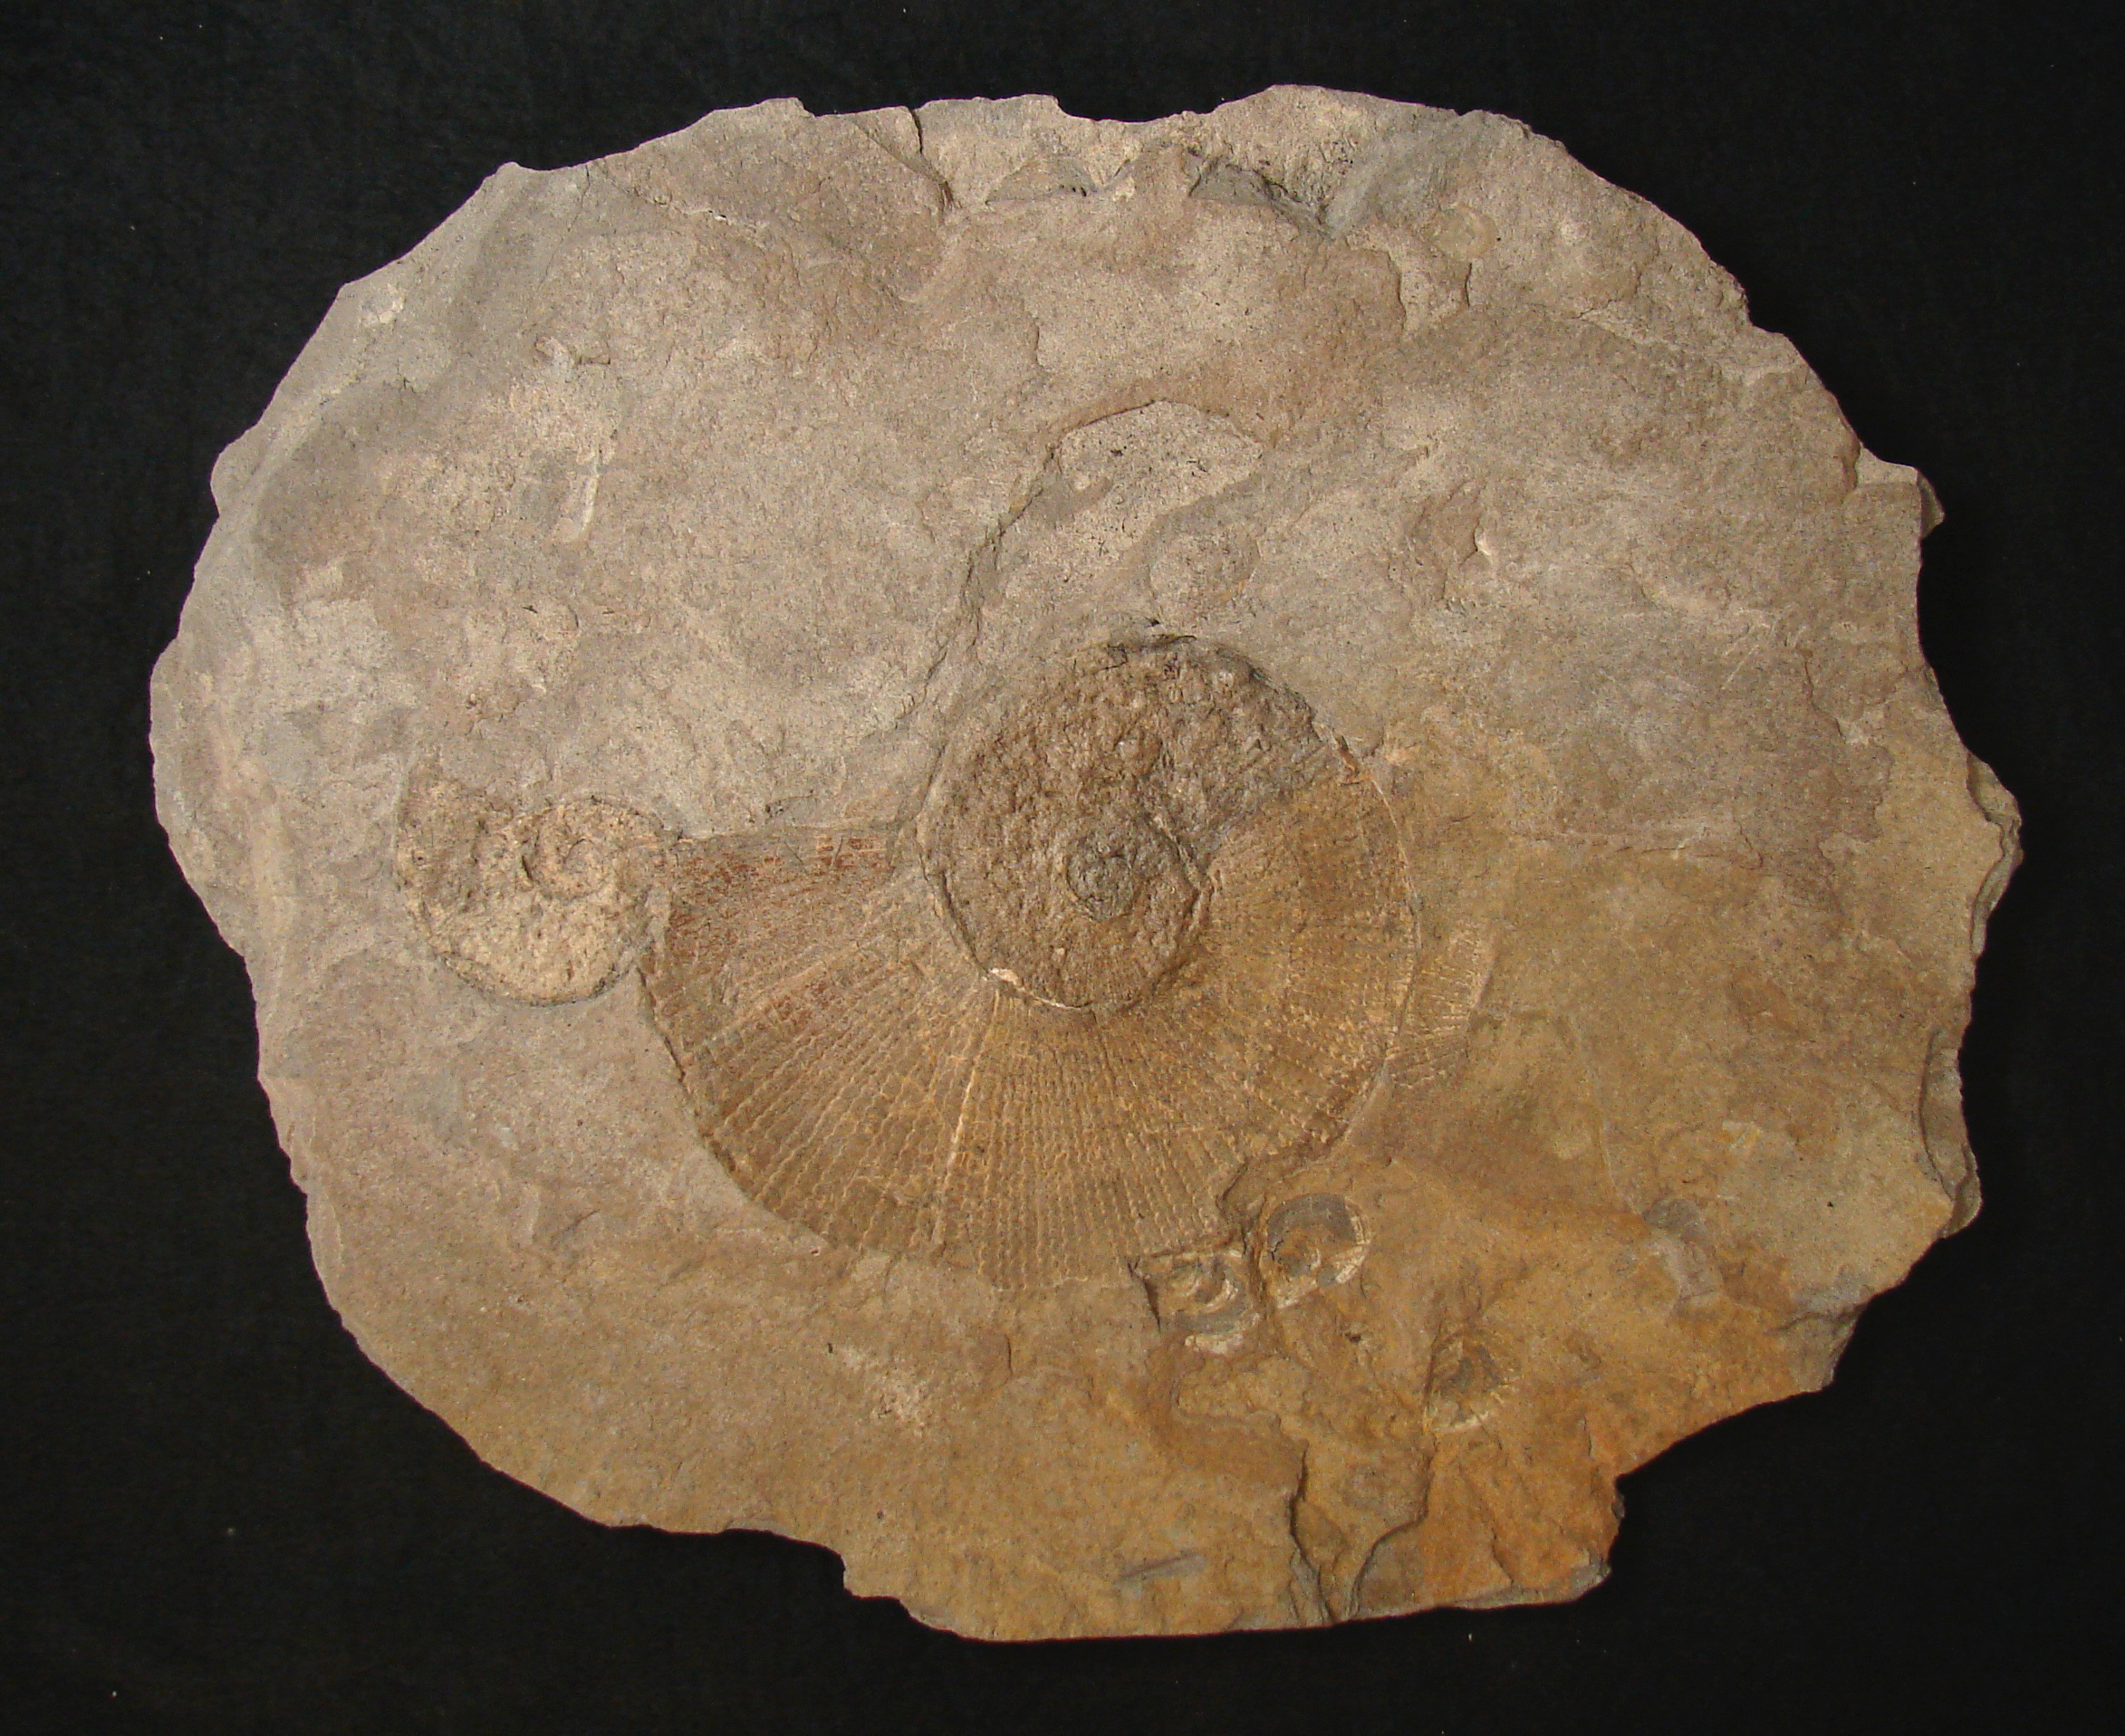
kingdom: Animalia
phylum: Mollusca
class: Cephalopoda
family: Lytoceratidae
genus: Lytoceras
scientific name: Lytoceras Ammonites siemensi
